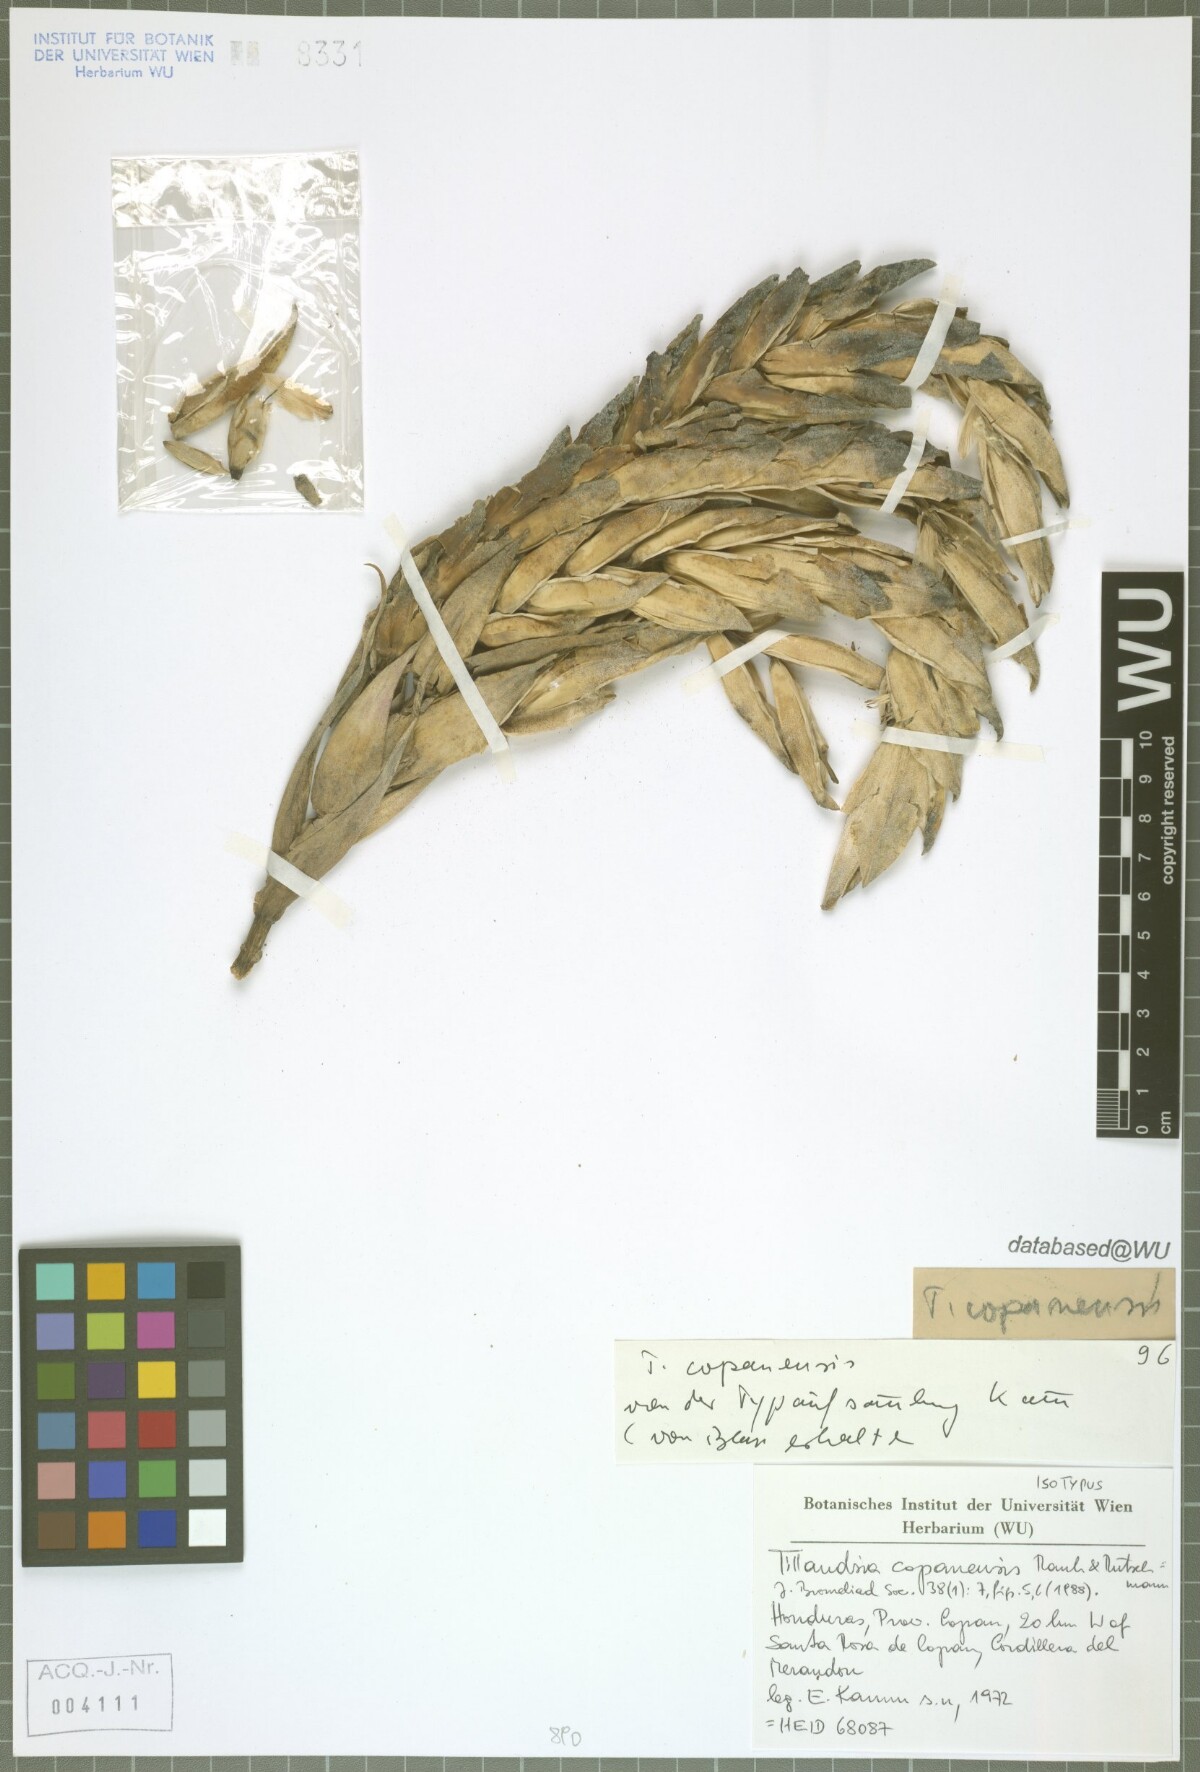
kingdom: Plantae
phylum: Tracheophyta
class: Liliopsida
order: Poales
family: Bromeliaceae
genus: Tillandsia
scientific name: Tillandsia copanensis
